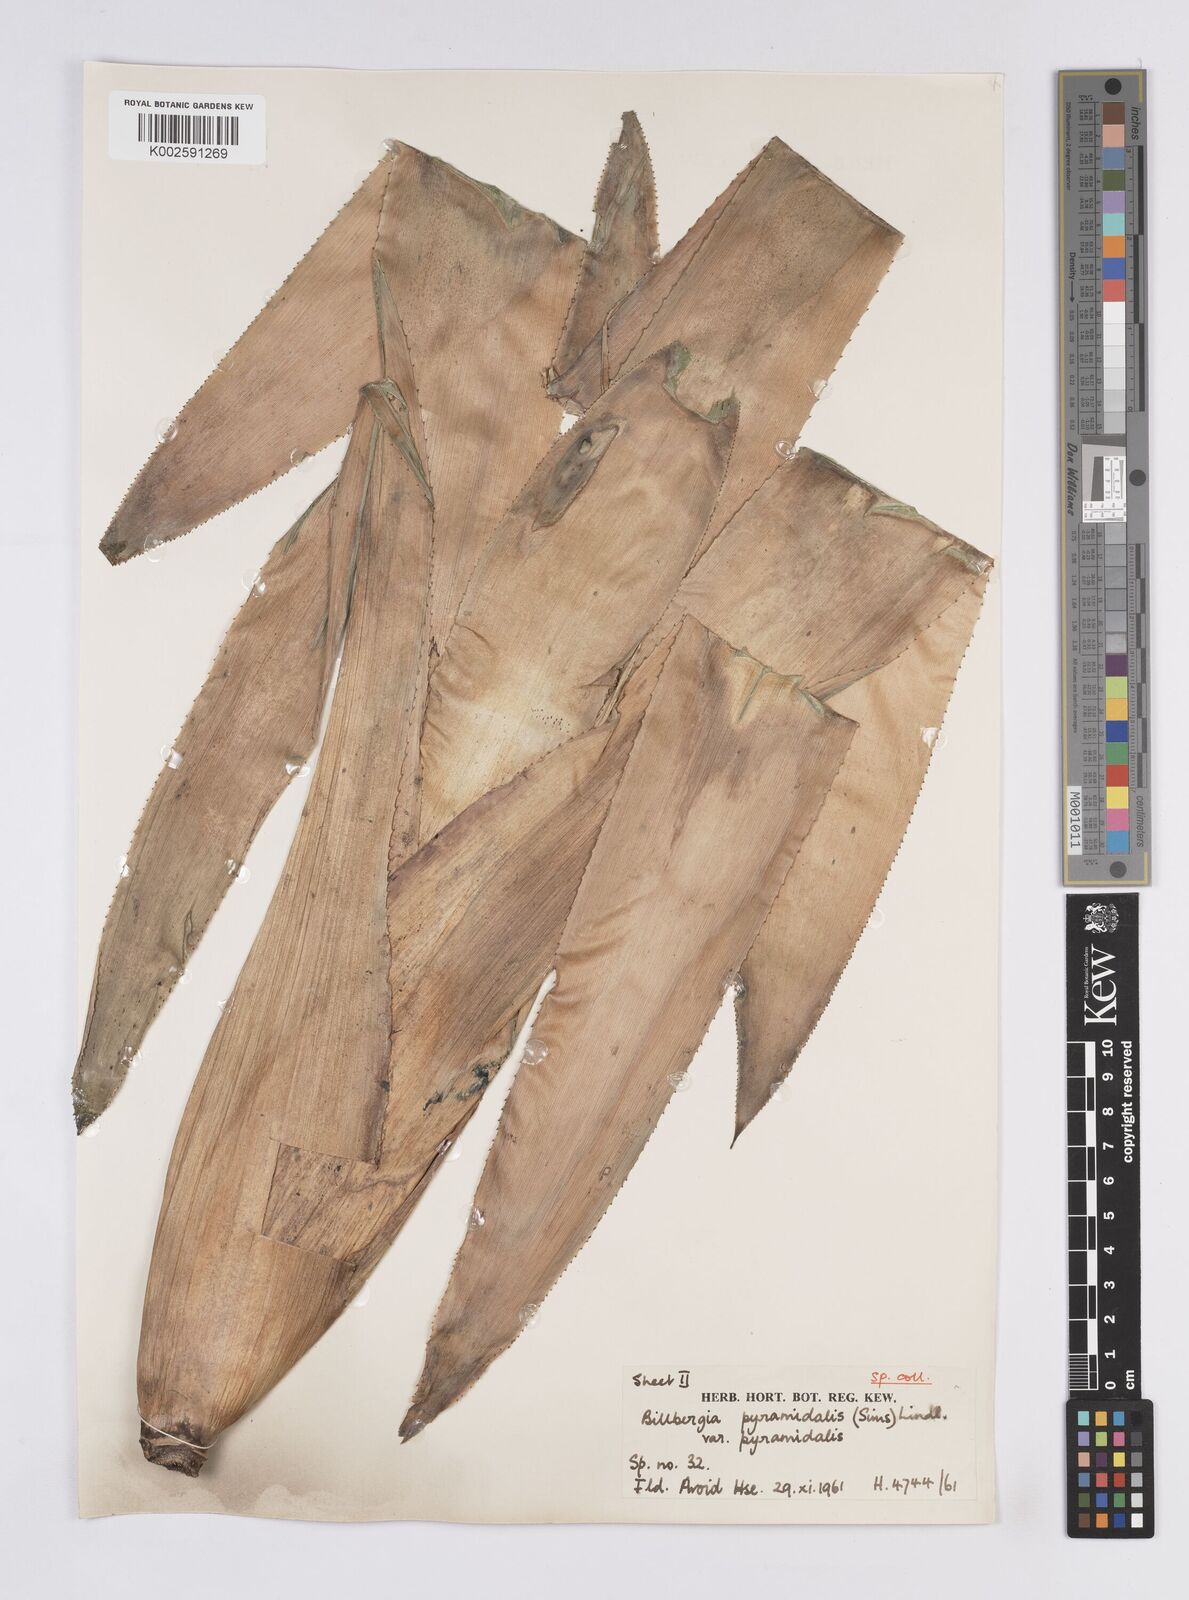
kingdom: Plantae
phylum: Tracheophyta
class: Liliopsida
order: Poales
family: Bromeliaceae
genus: Billbergia
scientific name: Billbergia pyramidalis
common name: Foolproofplant
